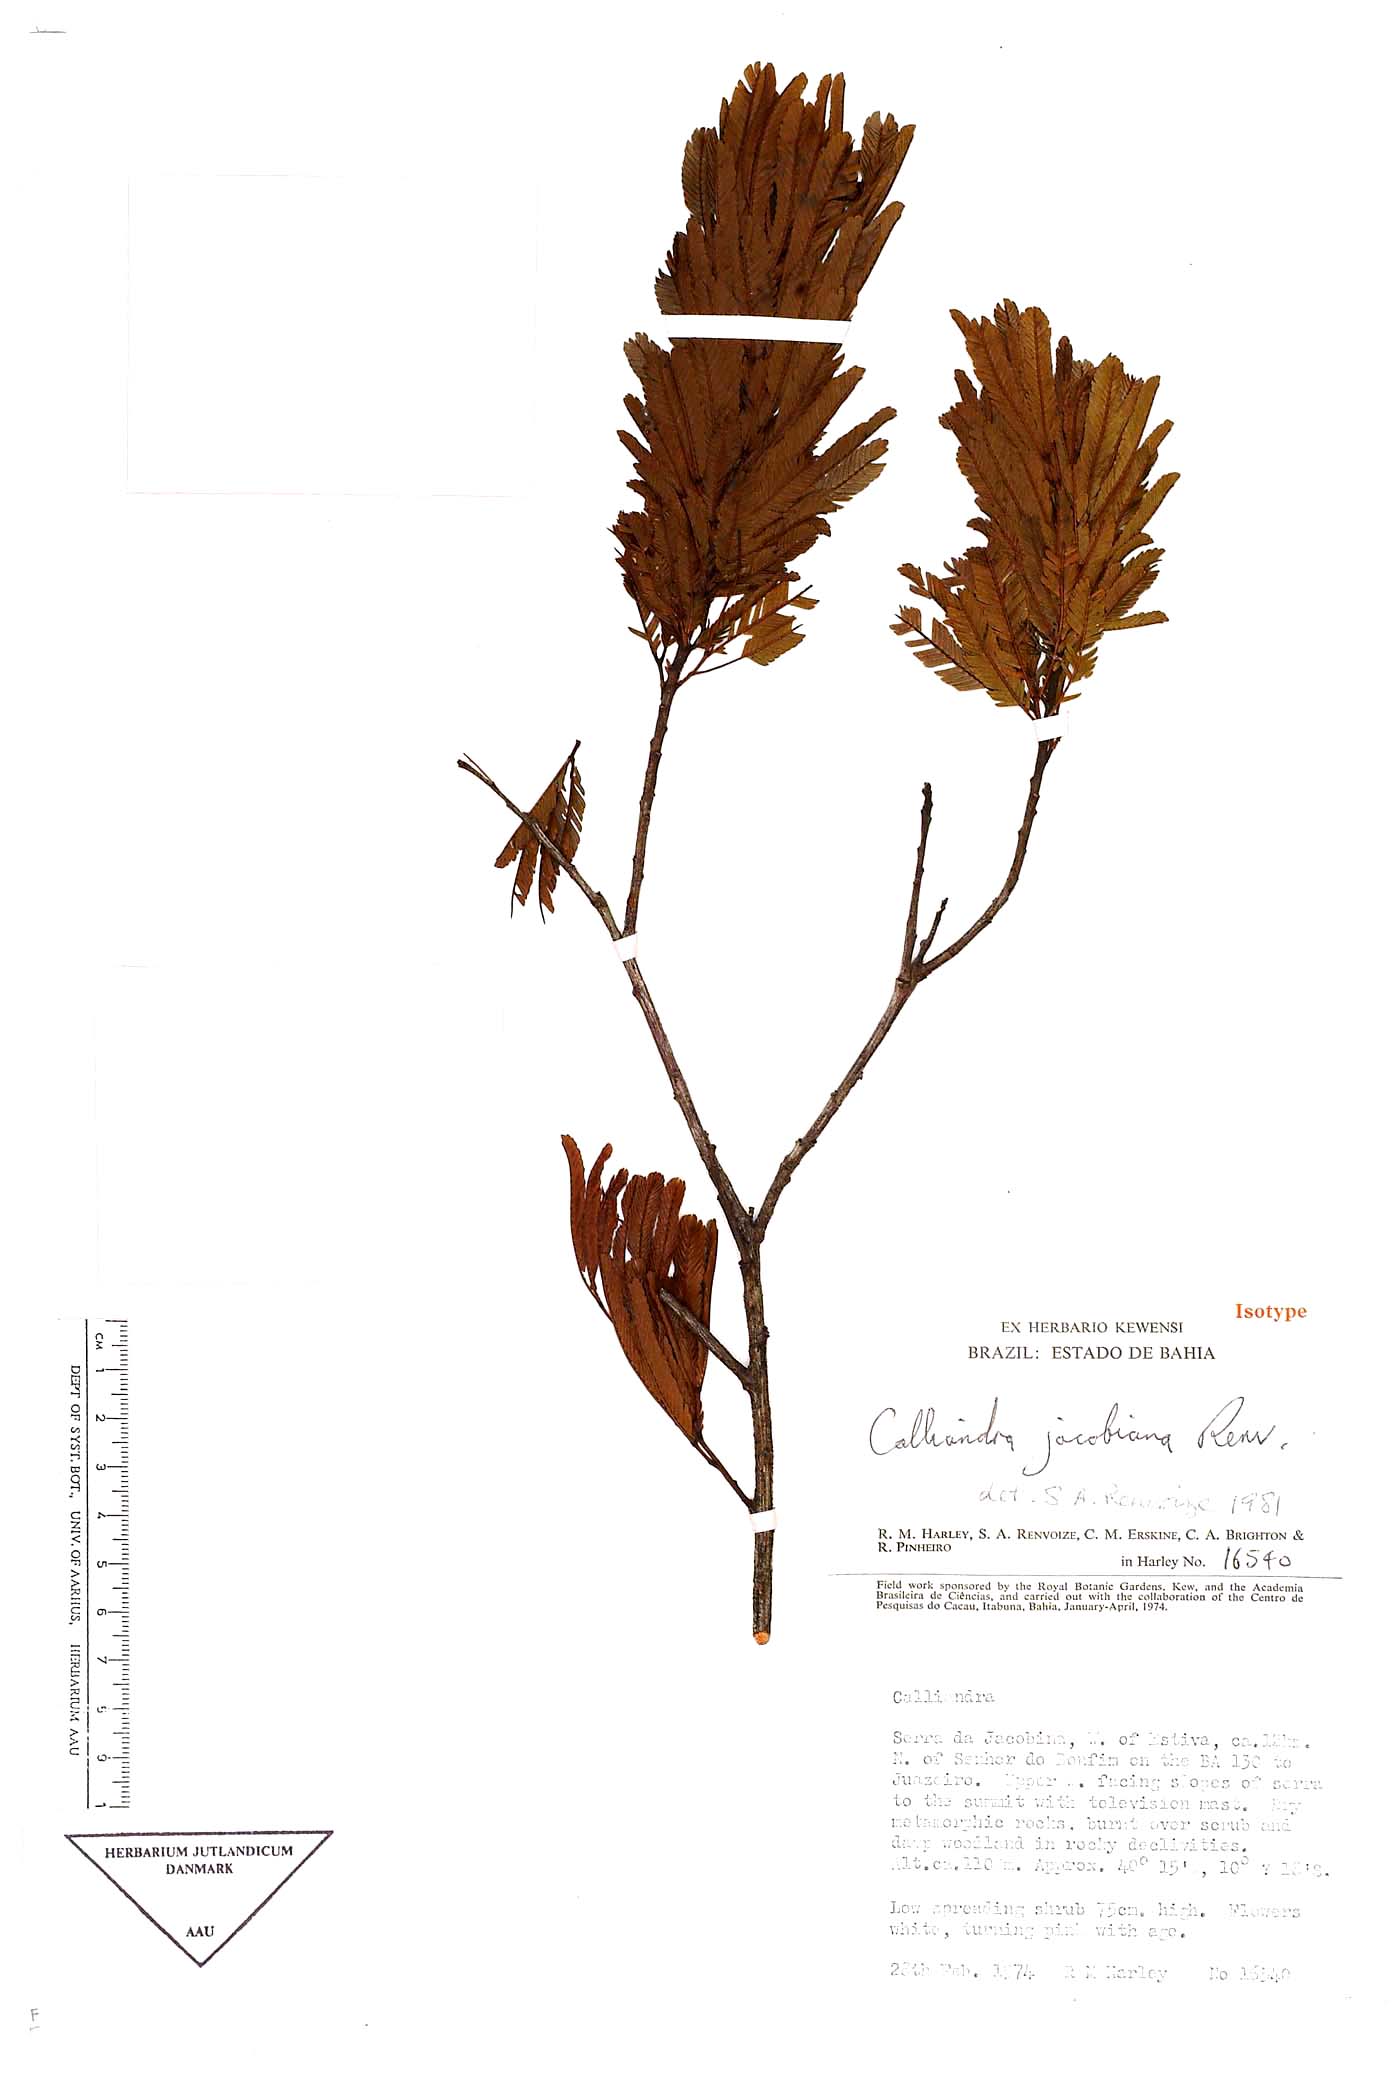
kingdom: Plantae
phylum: Tracheophyta
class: Magnoliopsida
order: Fabales
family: Fabaceae
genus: Calliandra
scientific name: Calliandra calycina
